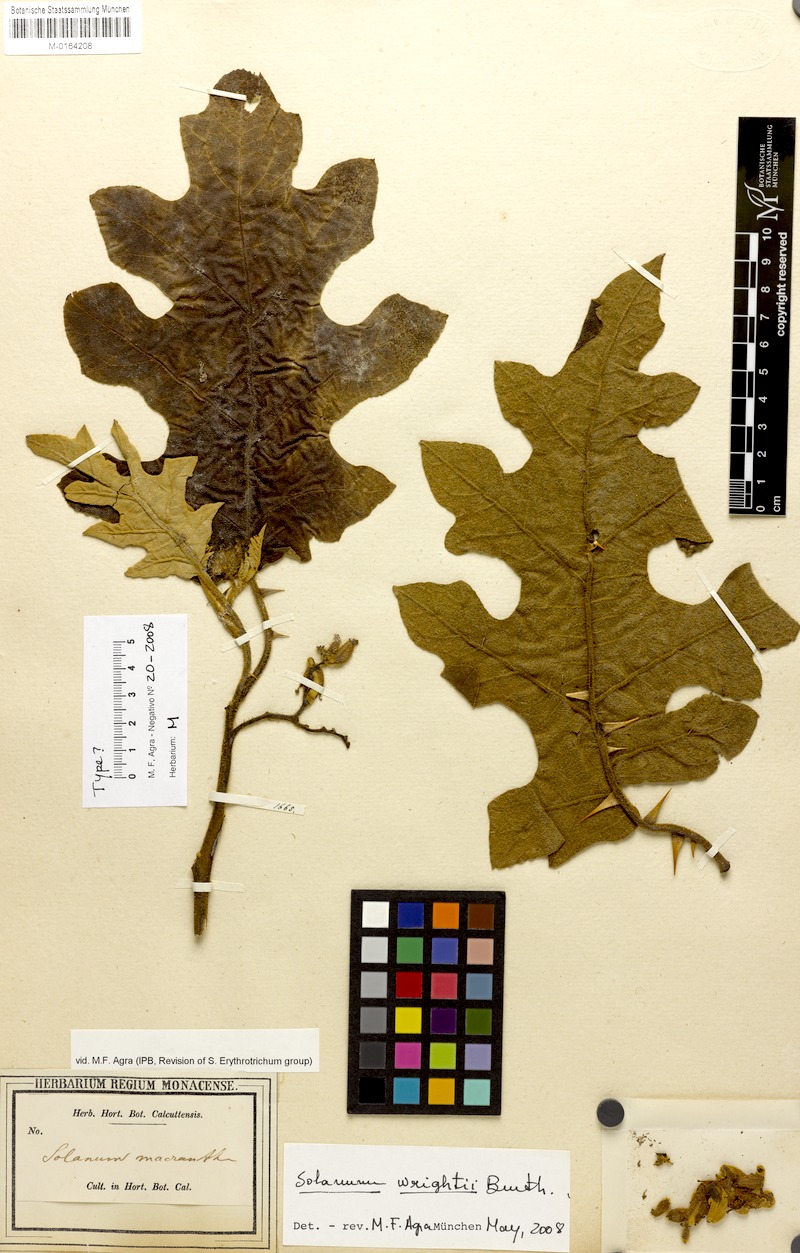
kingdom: Plantae
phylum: Tracheophyta
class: Magnoliopsida
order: Solanales
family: Solanaceae
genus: Solanum
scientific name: Solanum wrightii
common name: Brazilian potato-tree
